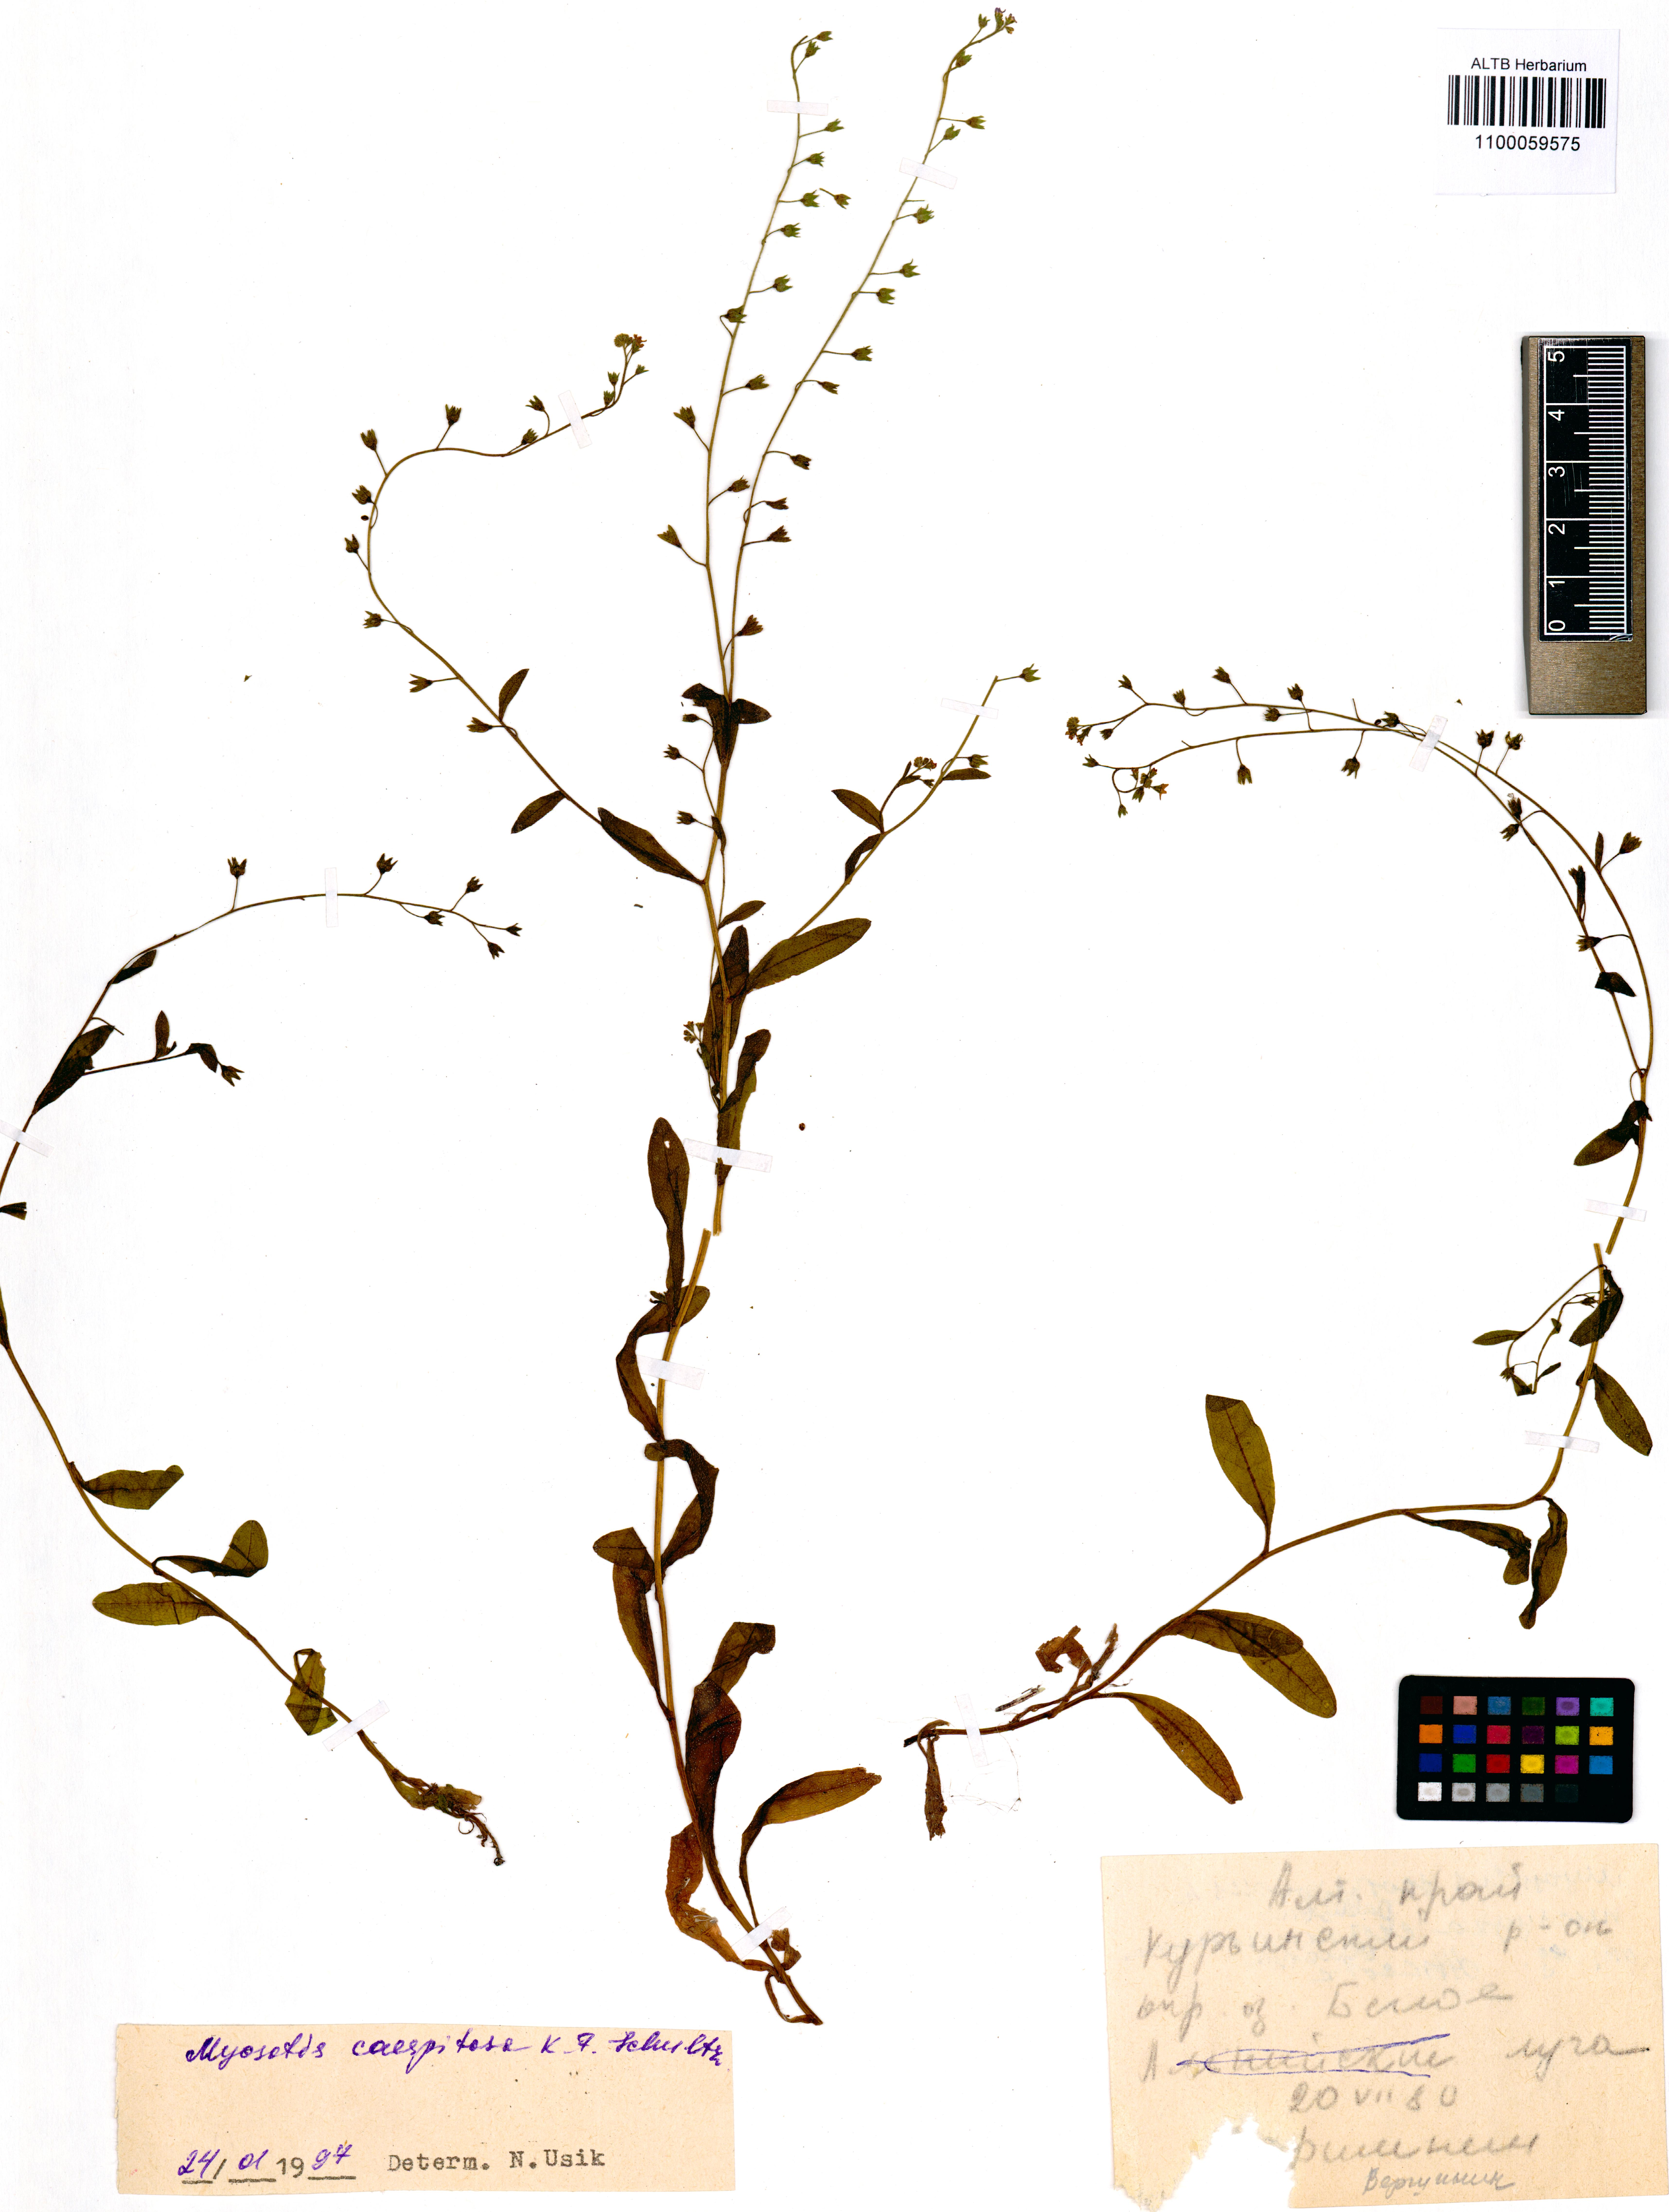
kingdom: Plantae
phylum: Tracheophyta
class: Magnoliopsida
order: Boraginales
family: Boraginaceae
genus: Myosotis
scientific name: Myosotis laxa
